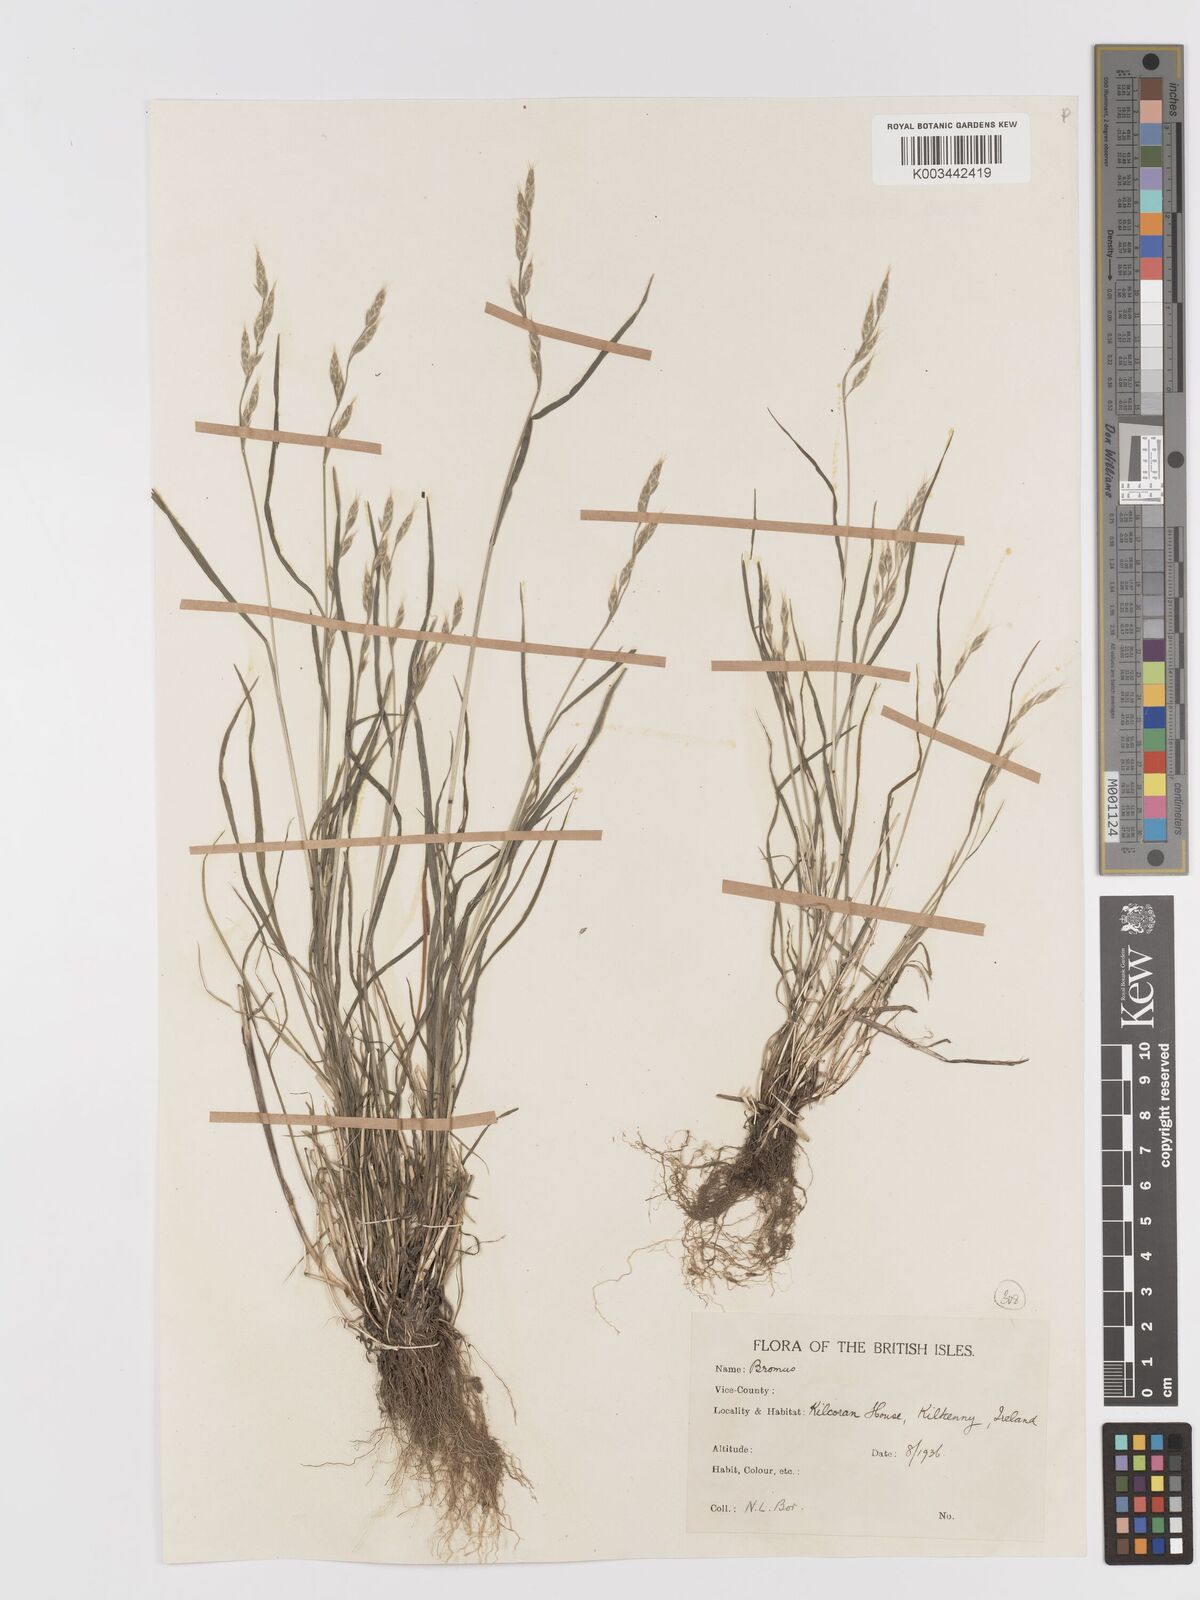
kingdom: Plantae
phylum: Tracheophyta
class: Liliopsida
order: Poales
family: Poaceae
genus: Bromus
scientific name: Bromus lepidus
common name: Slender soft-brome
